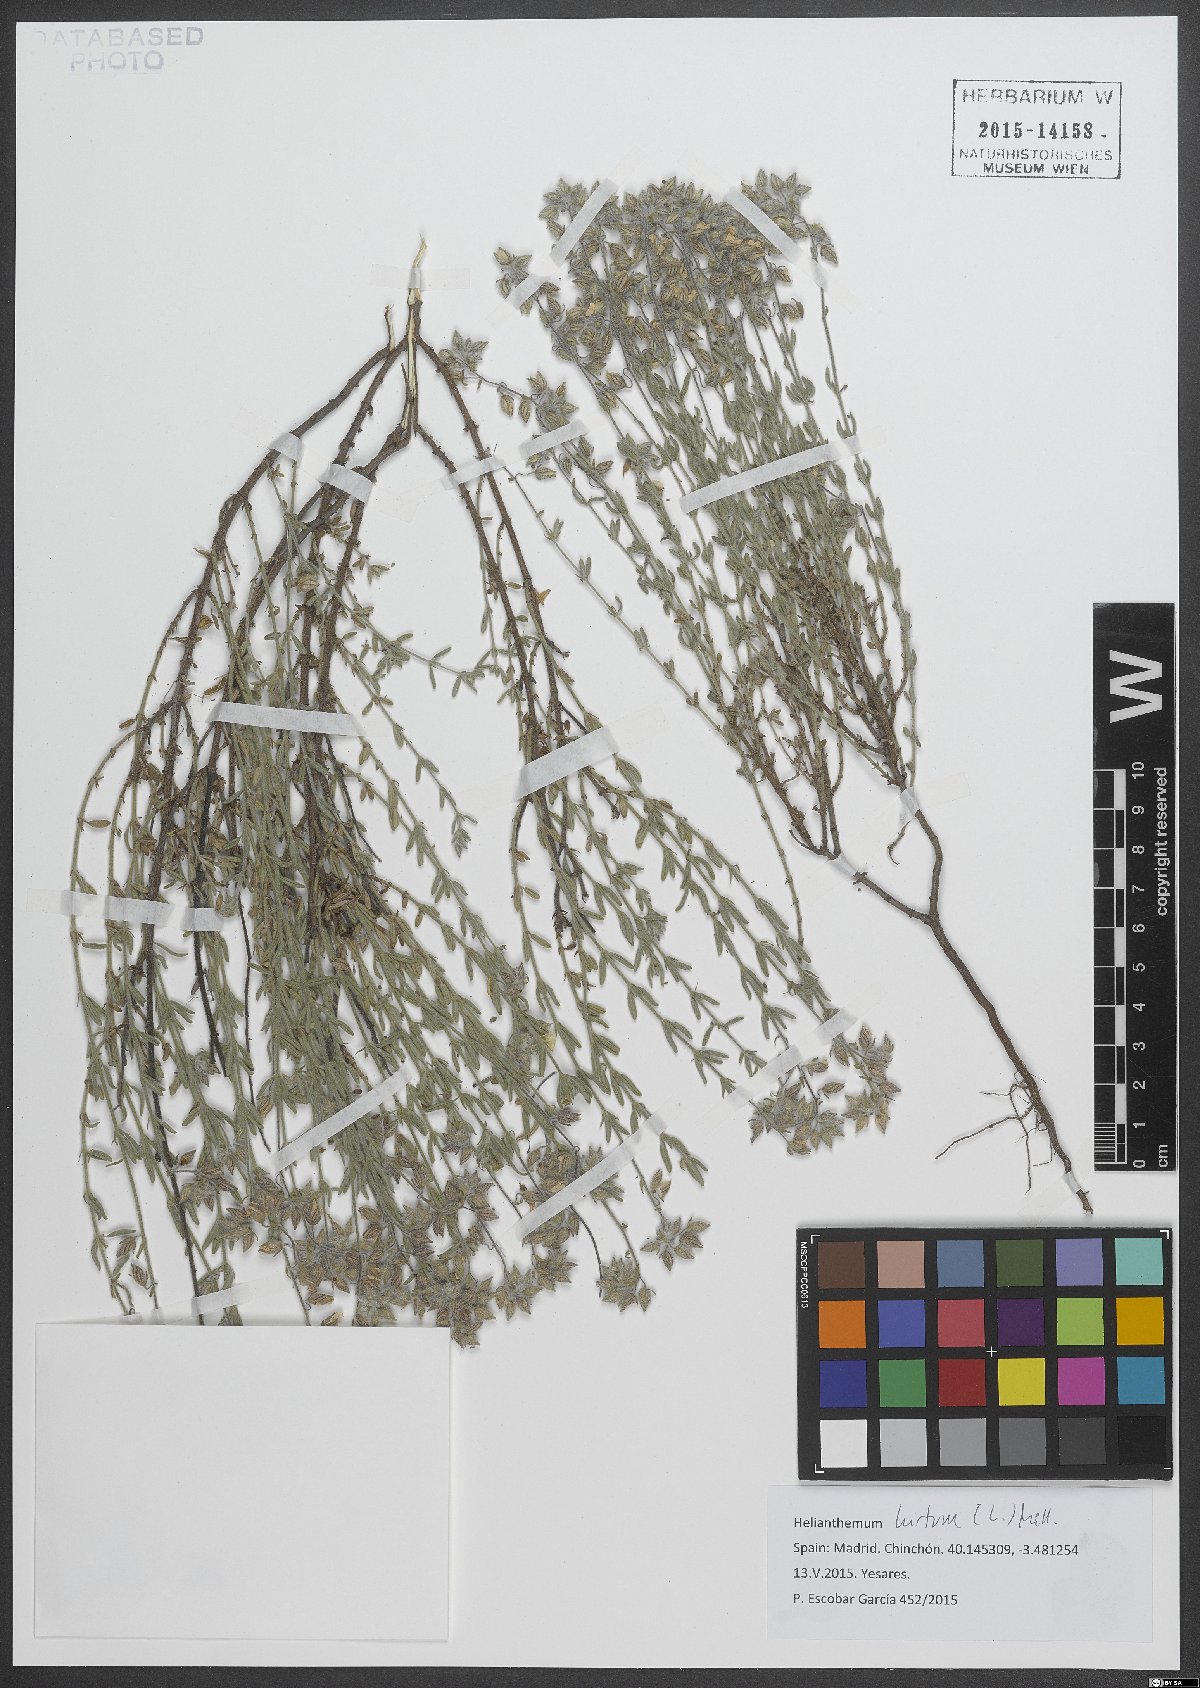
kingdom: Plantae
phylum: Tracheophyta
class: Magnoliopsida
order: Malvales
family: Cistaceae
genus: Helianthemum
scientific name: Helianthemum hirtum
